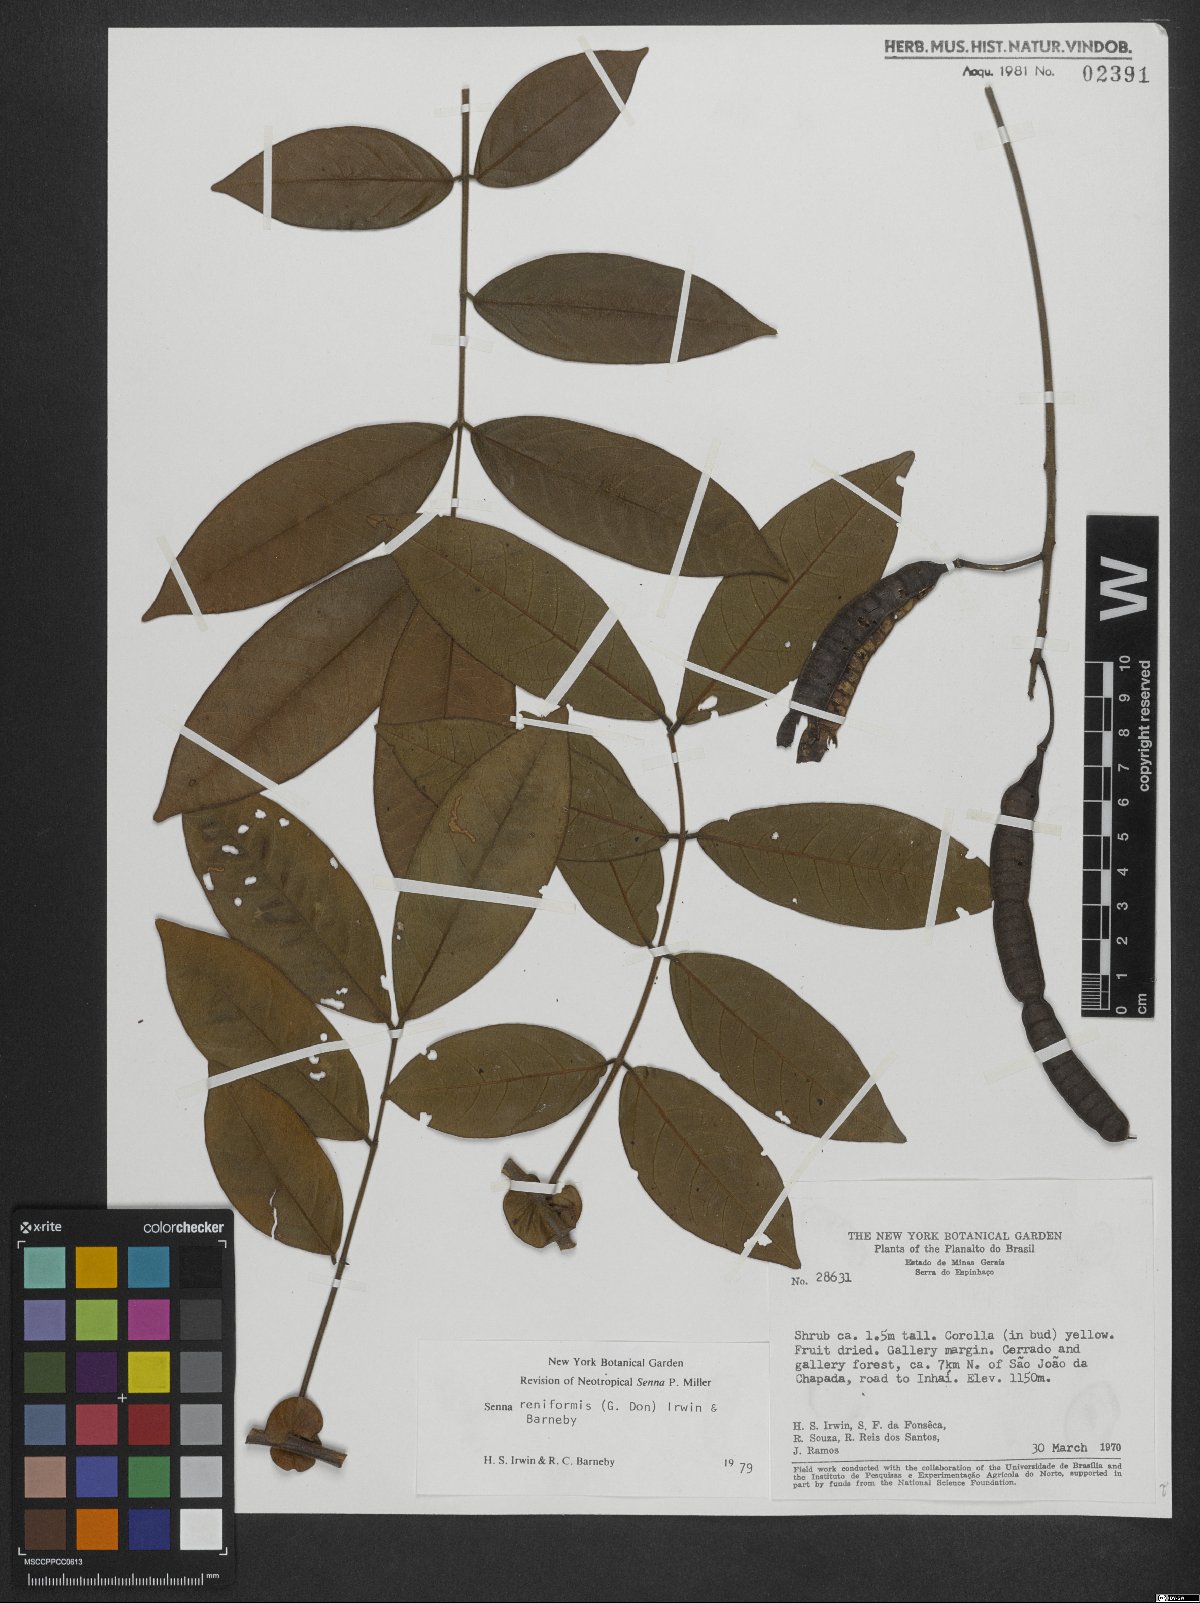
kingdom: Plantae
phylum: Tracheophyta
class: Magnoliopsida
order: Fabales
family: Fabaceae
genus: Senna
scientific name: Senna reniformis
